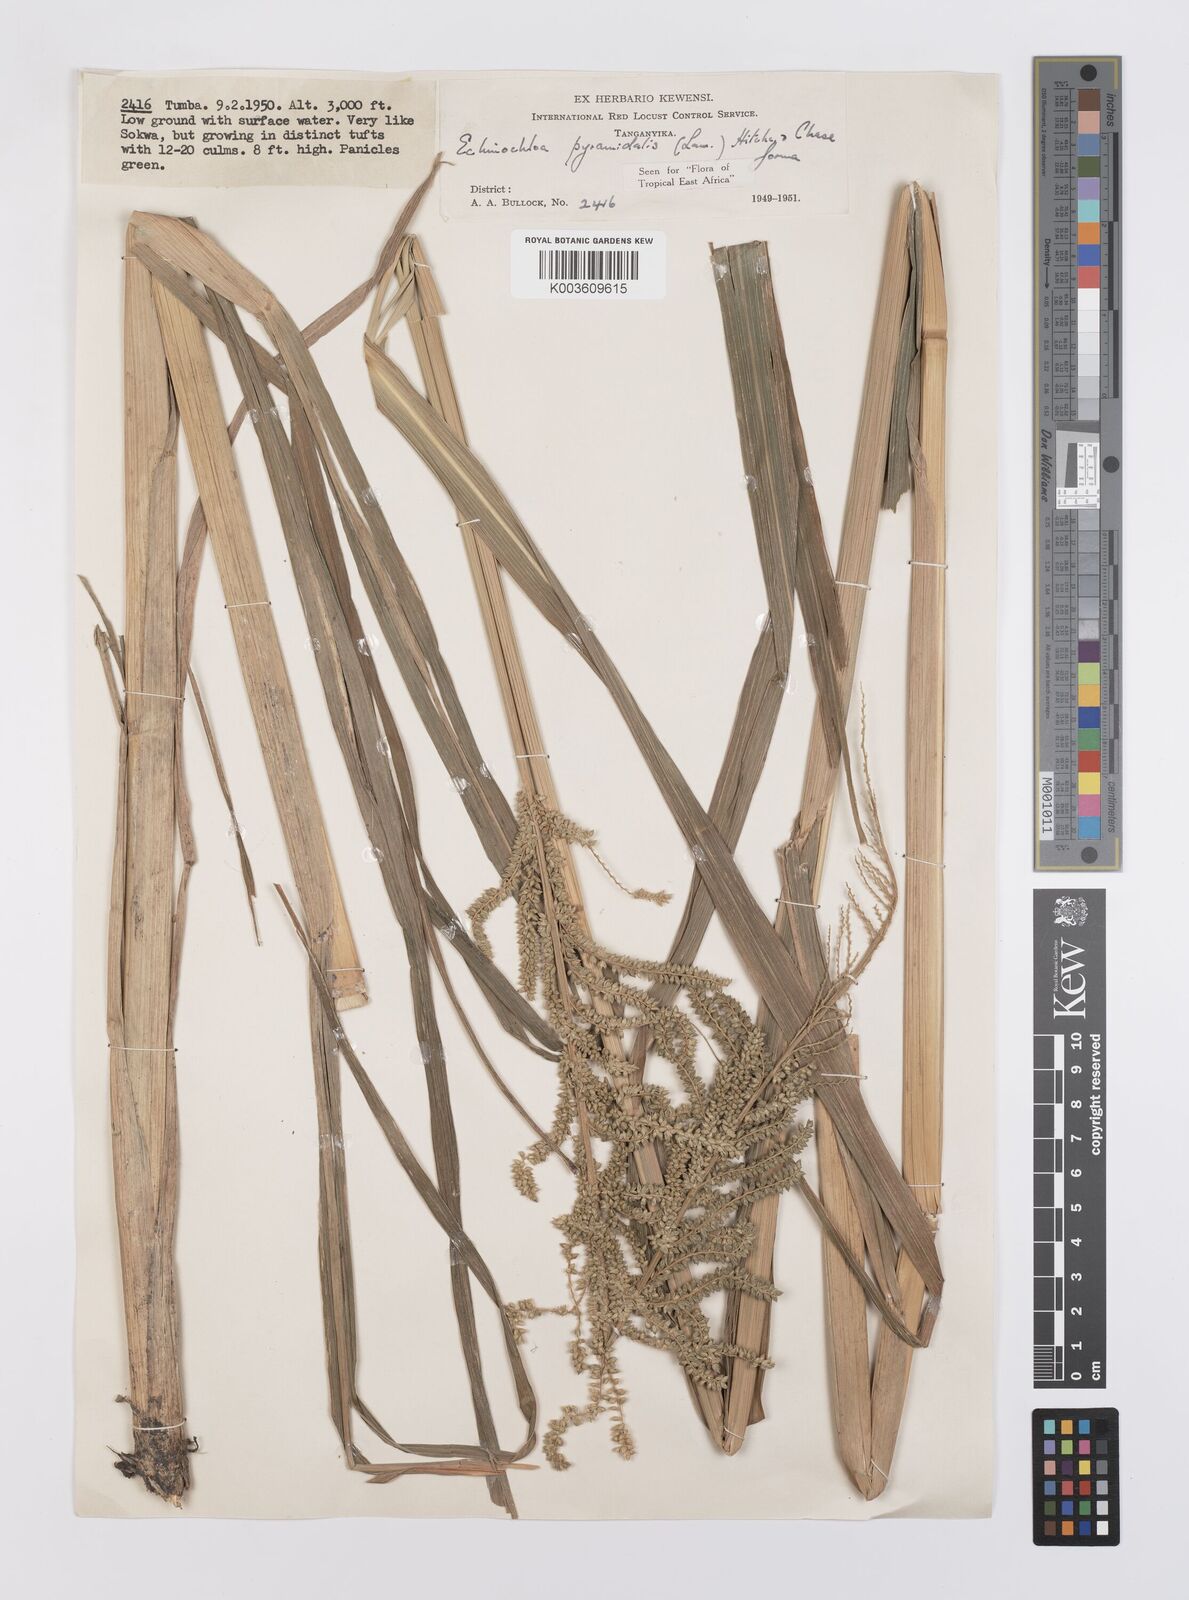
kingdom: Plantae
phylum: Tracheophyta
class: Liliopsida
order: Poales
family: Poaceae
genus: Echinochloa
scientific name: Echinochloa pyramidalis
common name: Antelope grass
